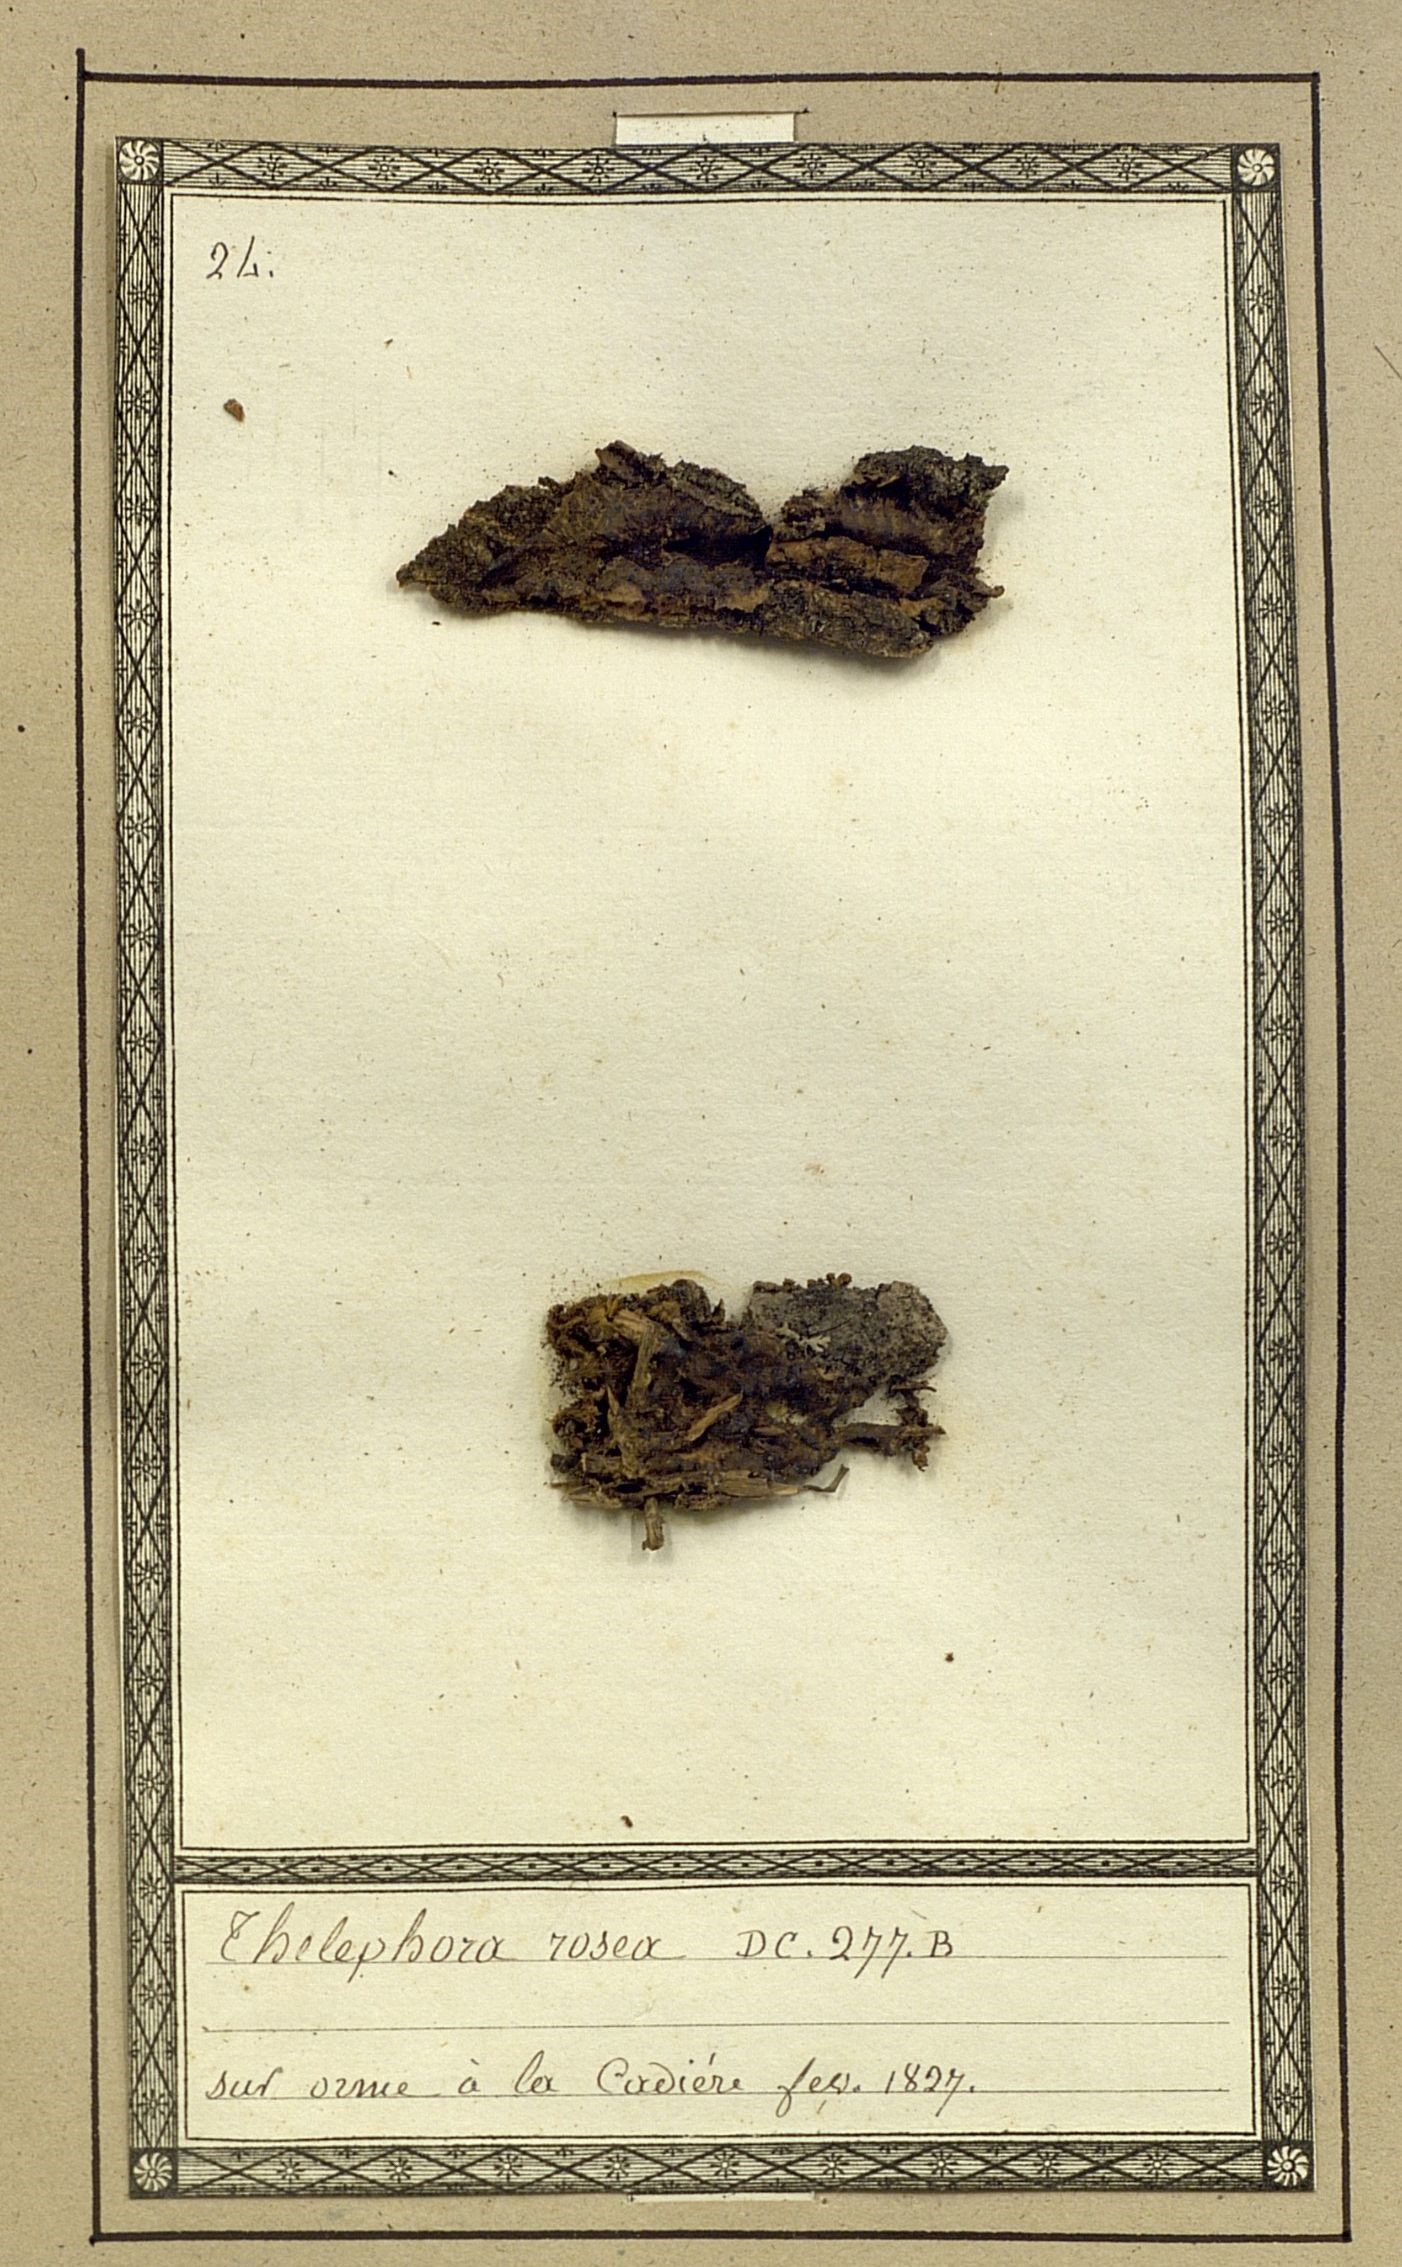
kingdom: Fungi
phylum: Basidiomycota
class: Agaricomycetes
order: Thelephorales
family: Thelephoraceae
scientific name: Thelephoraceae
